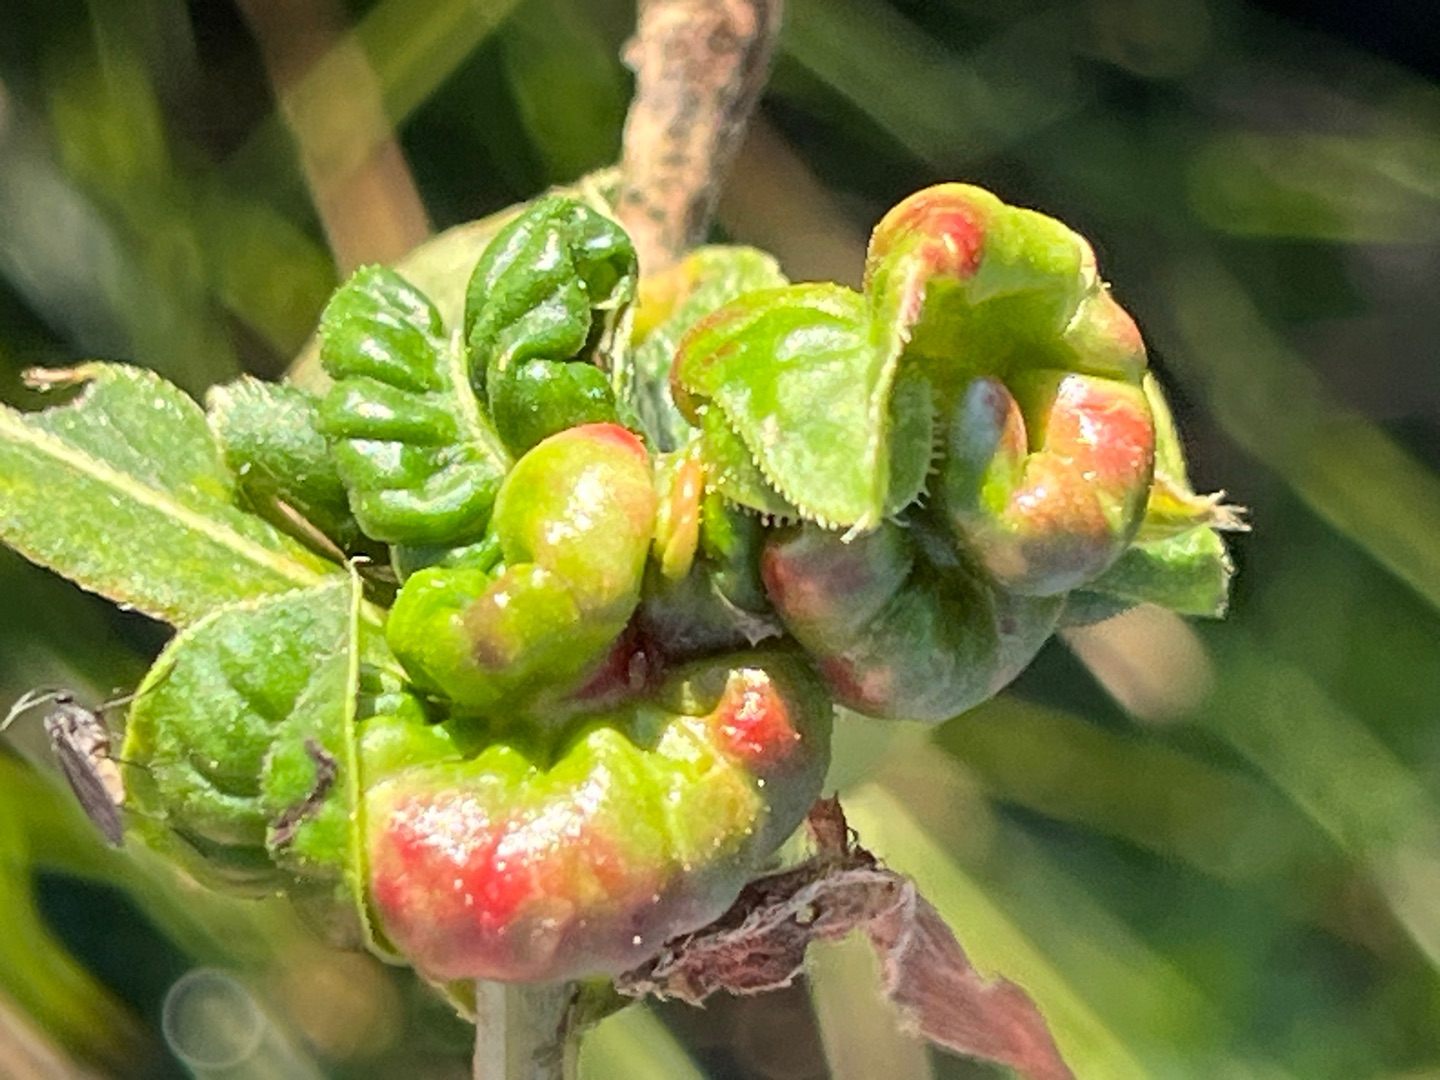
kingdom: Animalia
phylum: Arthropoda
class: Insecta
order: Diptera
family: Cecidomyiidae
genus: Wachtliella
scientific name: Wachtliella persicariae
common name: Pileurtgalmyg
